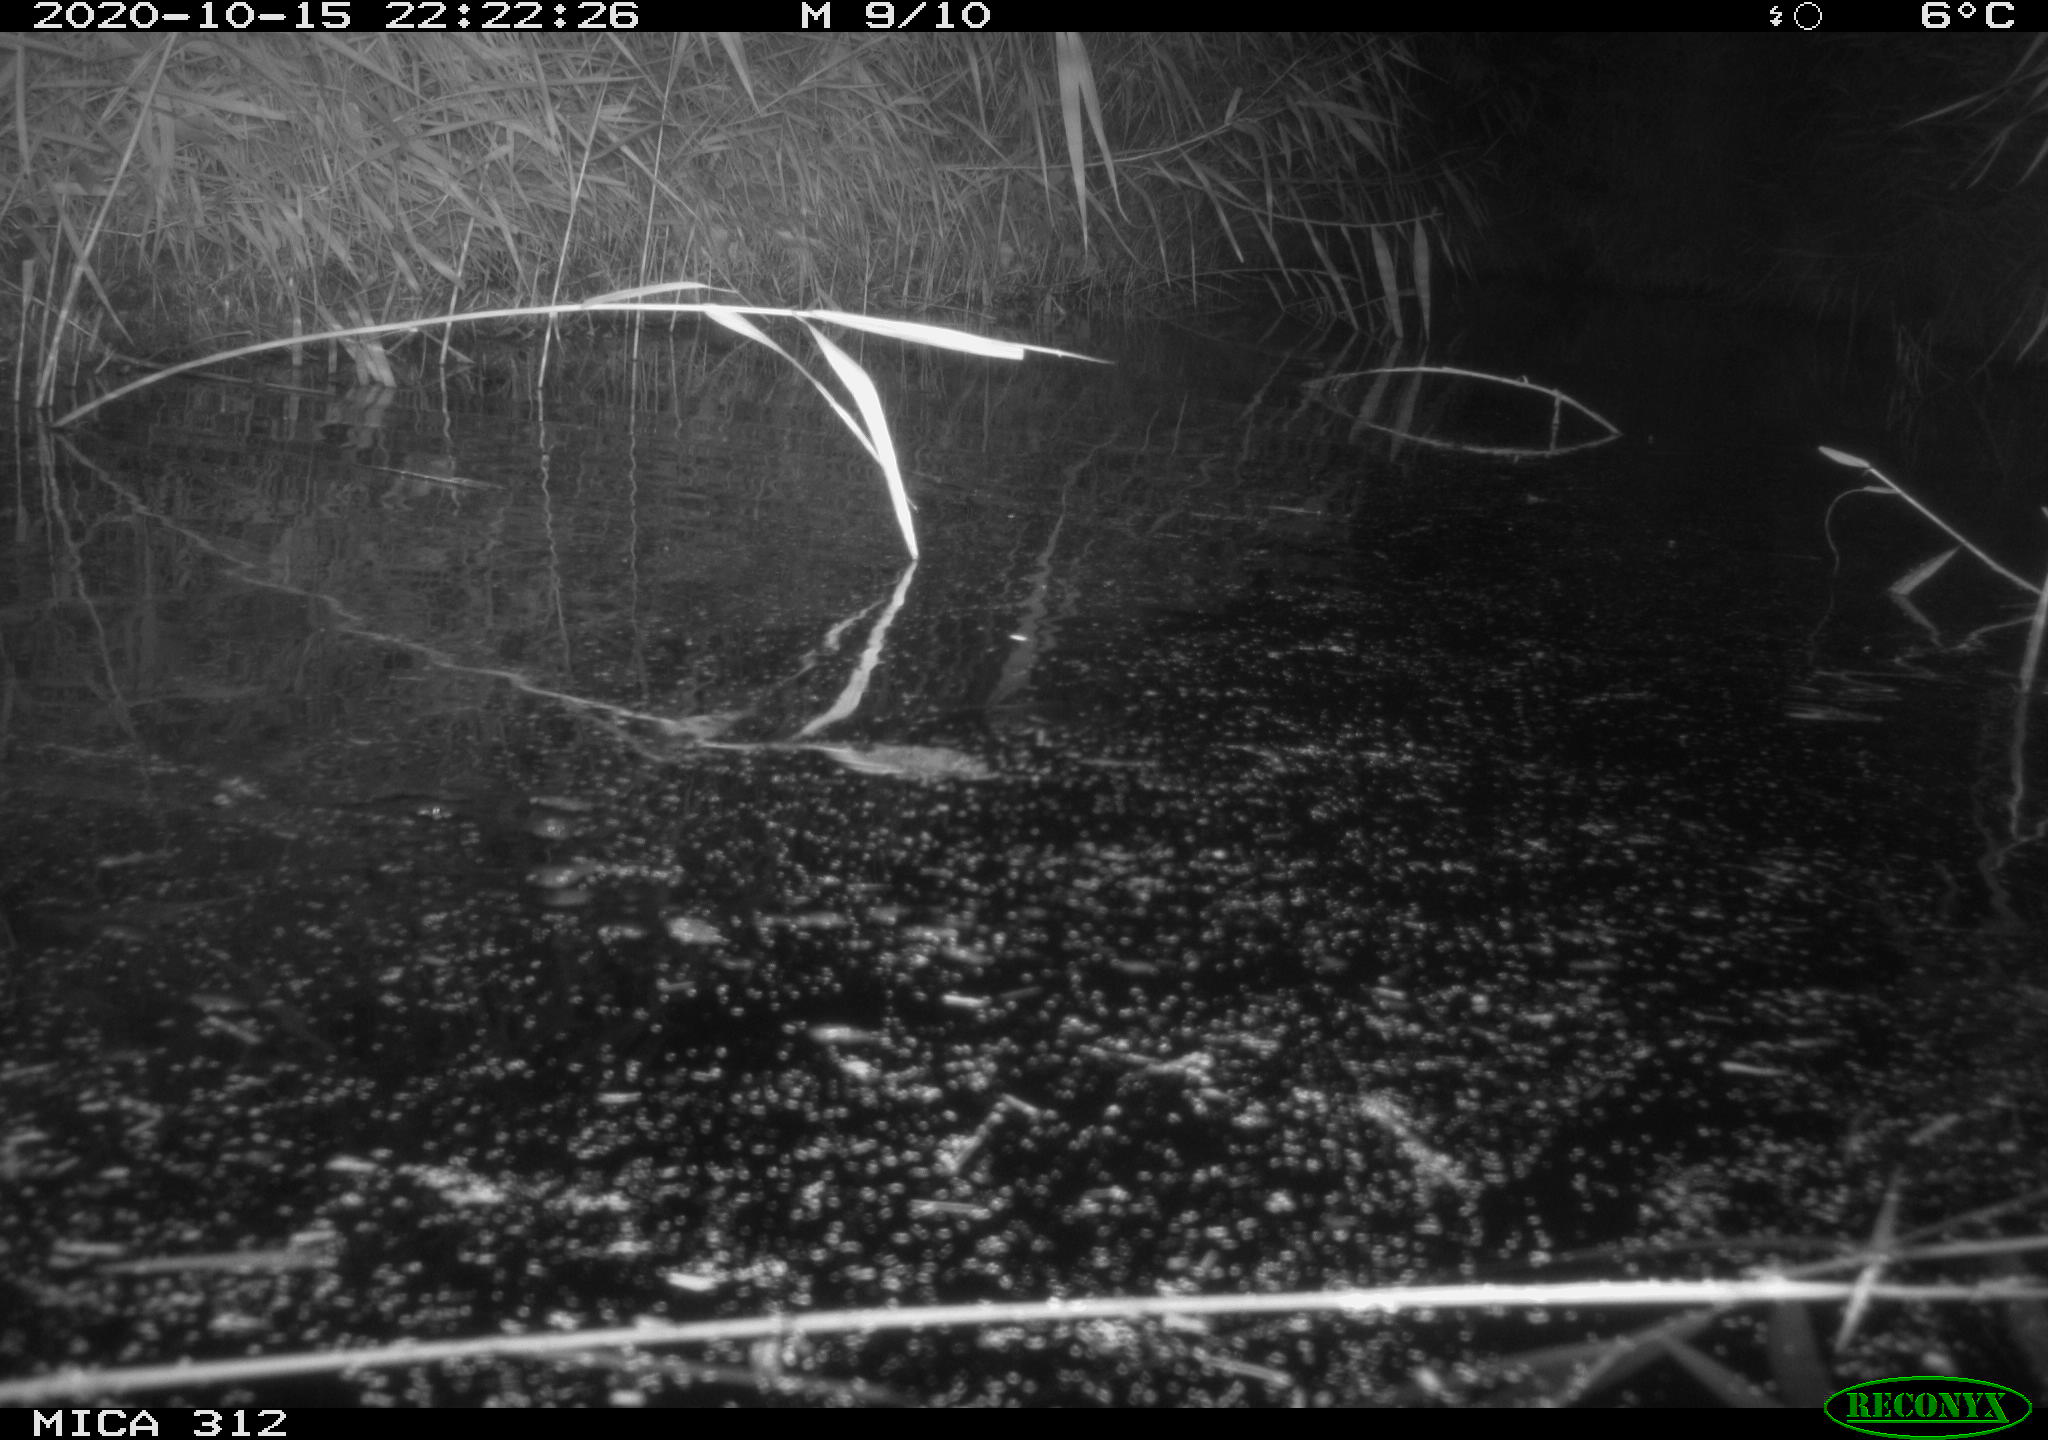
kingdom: Animalia
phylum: Chordata
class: Mammalia
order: Rodentia
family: Muridae
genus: Rattus
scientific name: Rattus norvegicus
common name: Brown rat
